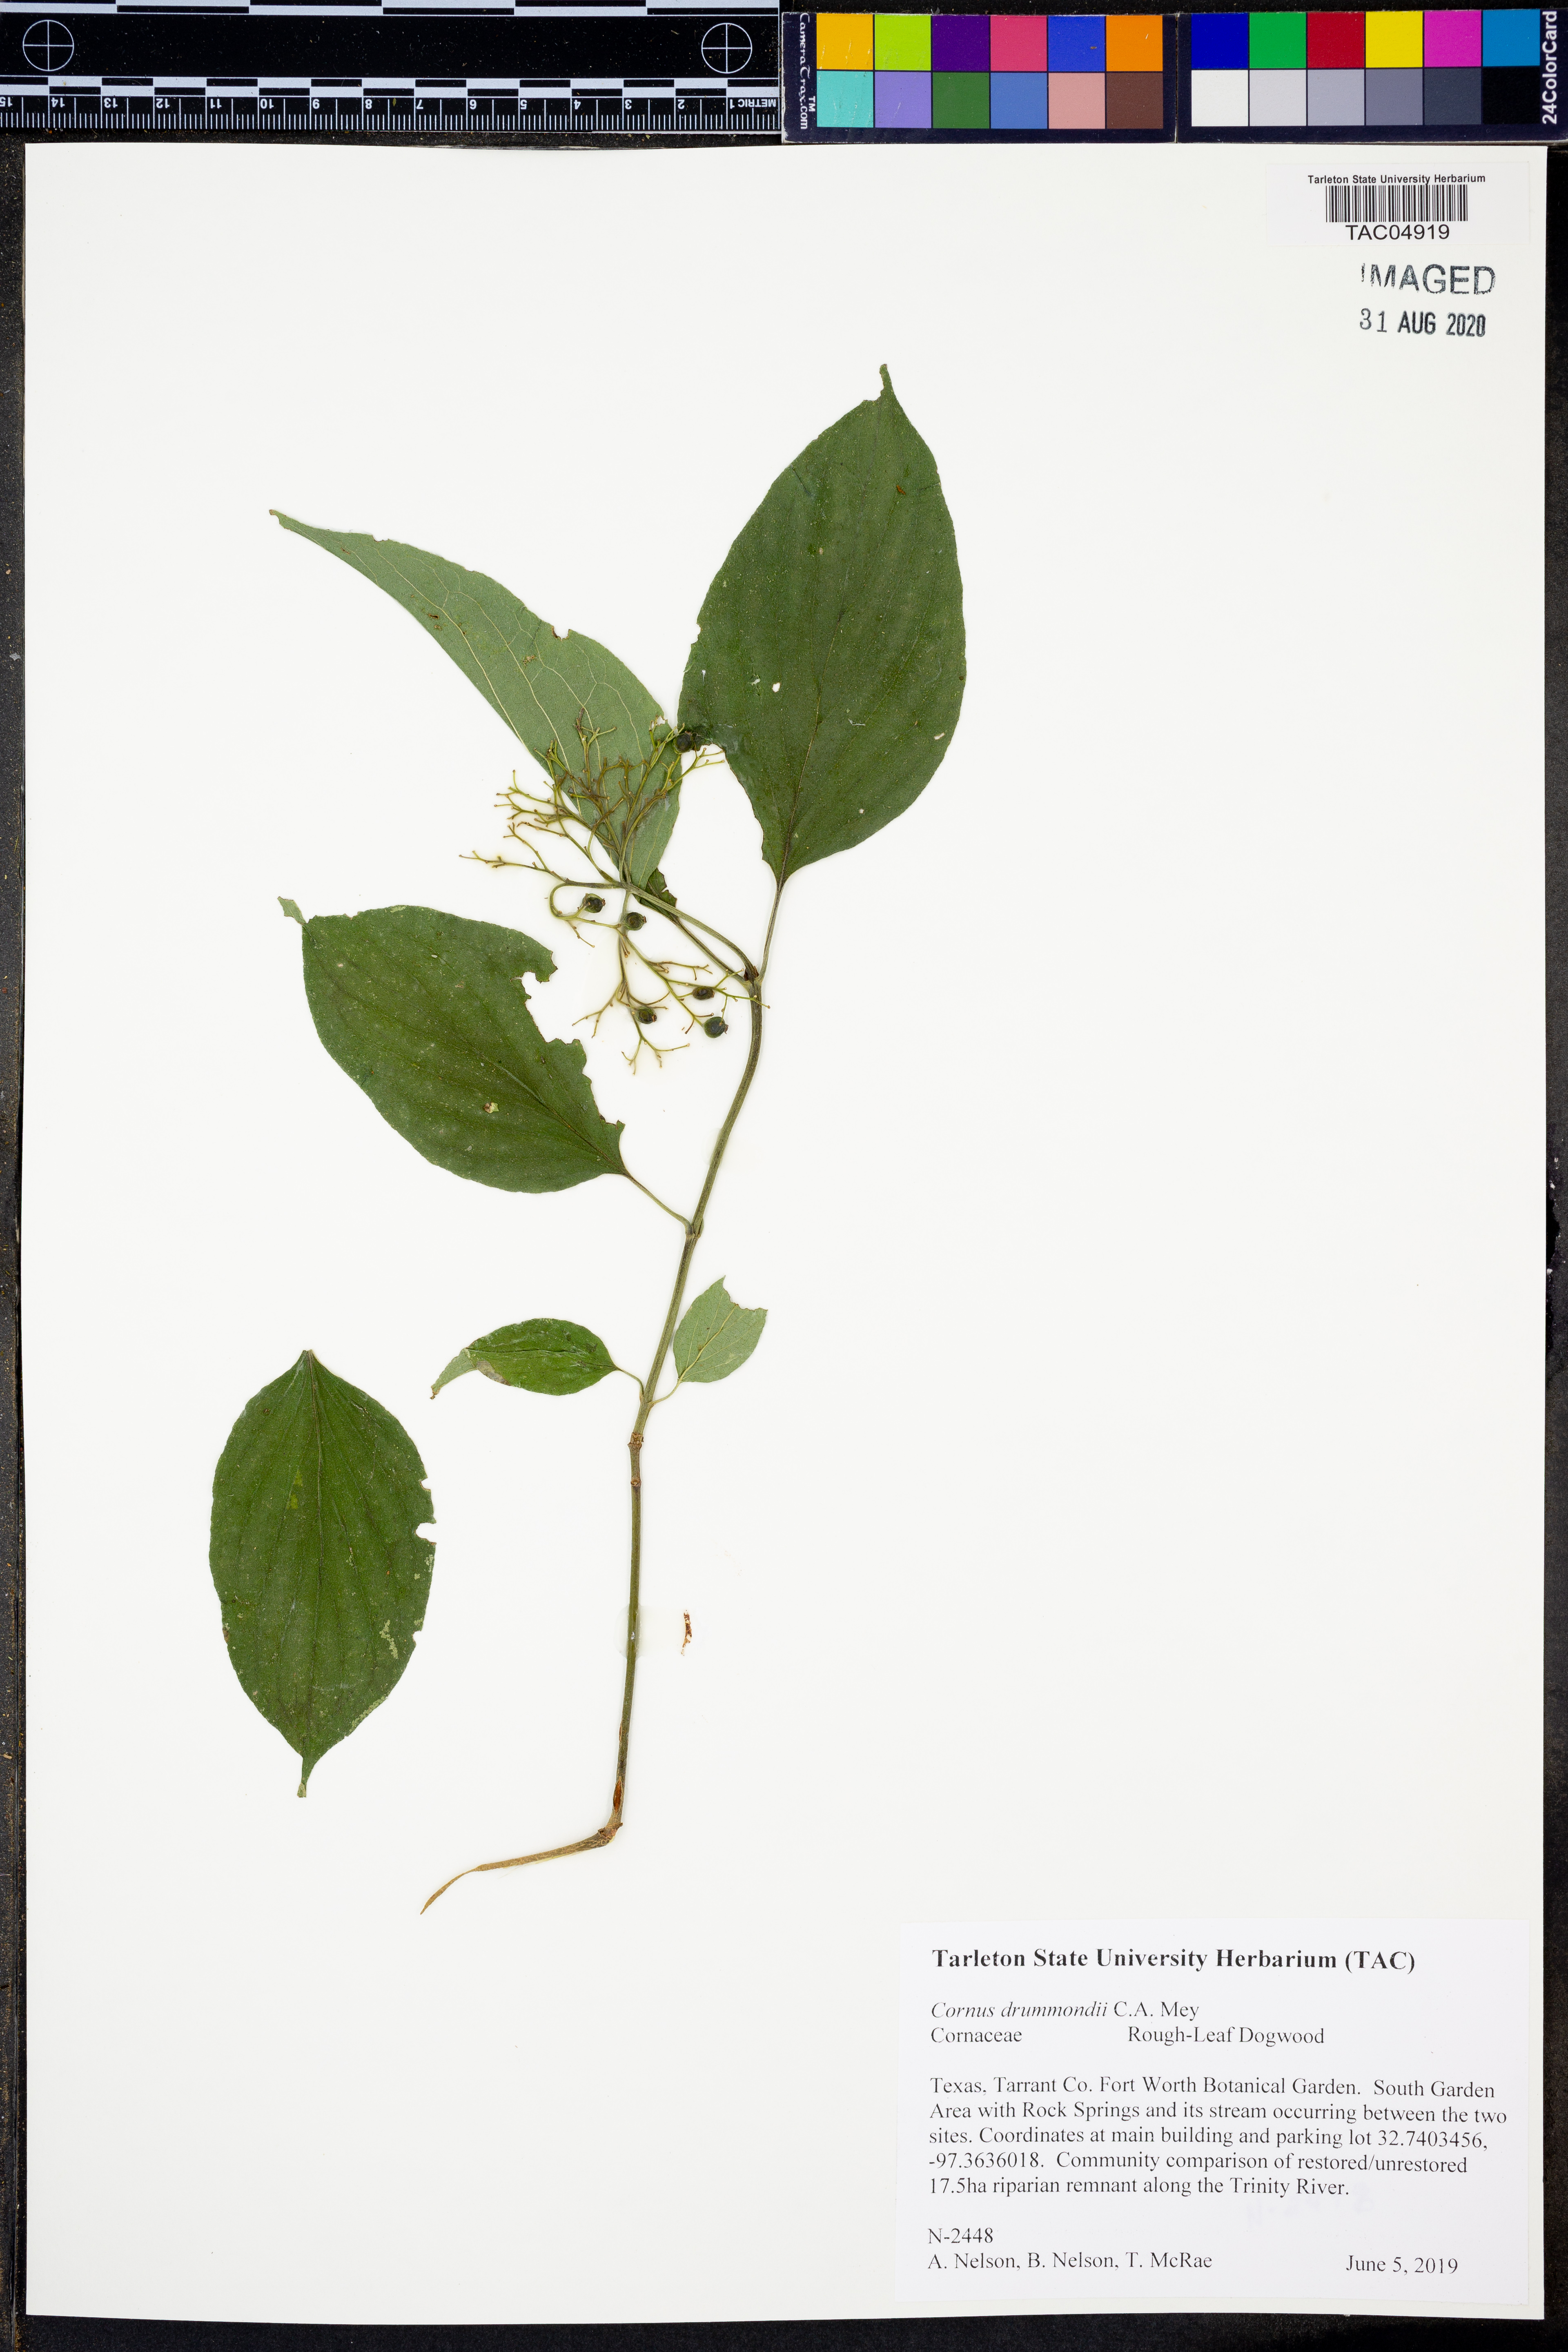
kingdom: Plantae
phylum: Tracheophyta
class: Magnoliopsida
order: Cornales
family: Cornaceae
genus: Cornus
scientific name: Cornus drummondii
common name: Rough-leaf dogwood
